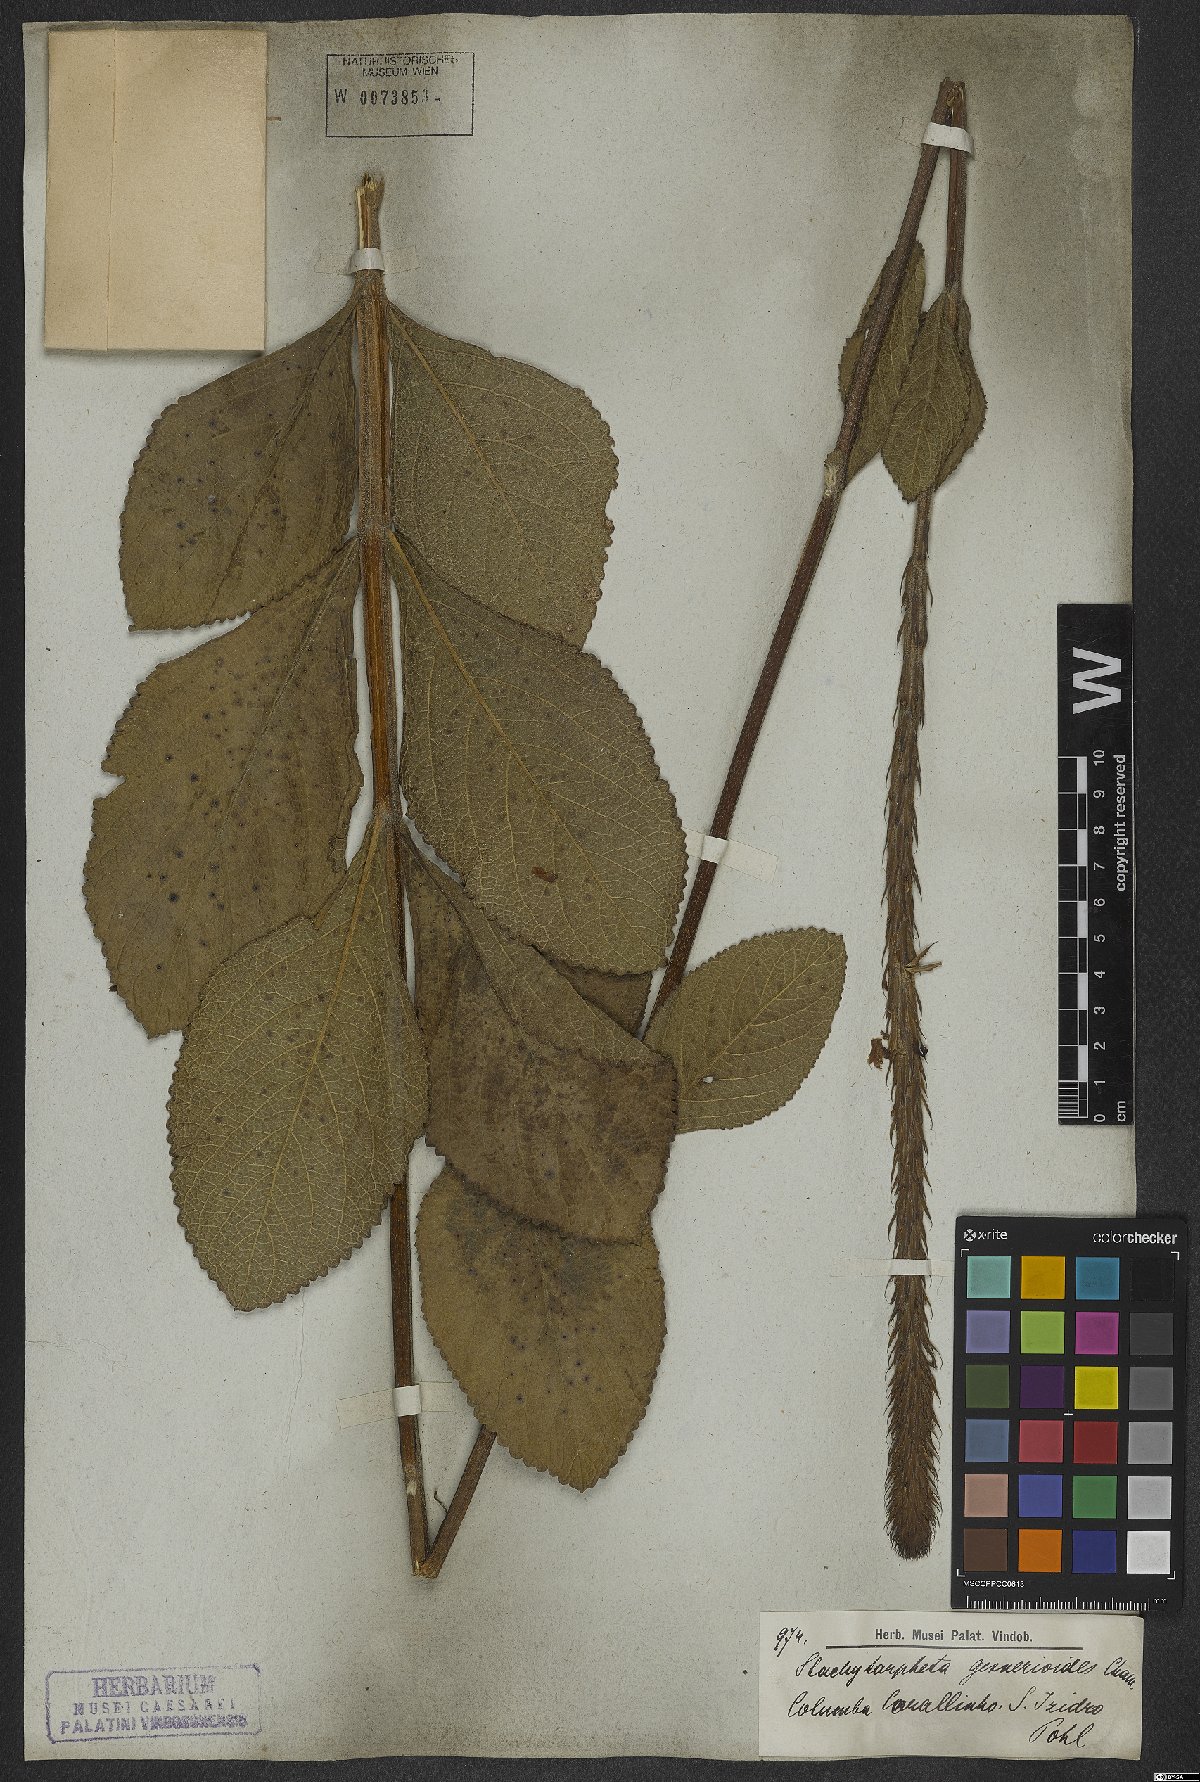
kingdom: Plantae
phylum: Tracheophyta
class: Magnoliopsida
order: Lamiales
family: Verbenaceae
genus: Stachytarpheta
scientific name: Stachytarpheta gesnerioides
